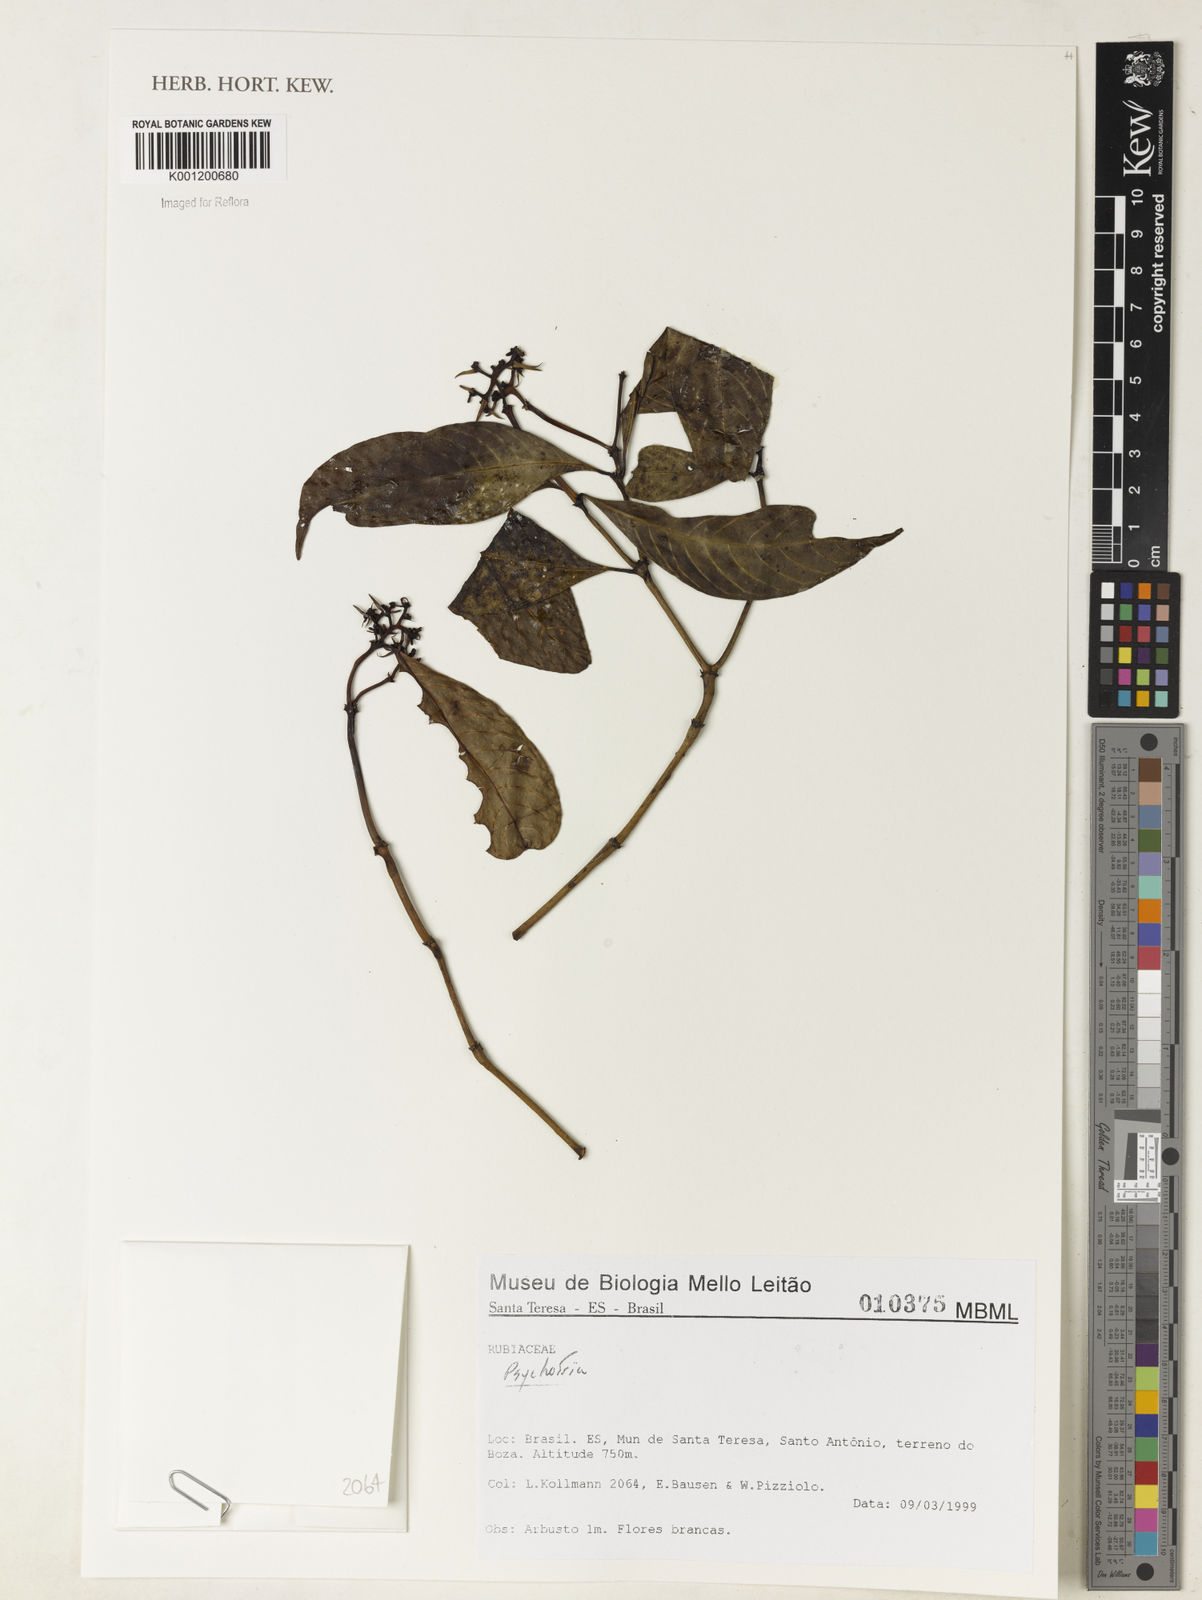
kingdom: Plantae
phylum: Tracheophyta
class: Magnoliopsida
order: Gentianales
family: Rubiaceae
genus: Psychotria
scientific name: Psychotria
